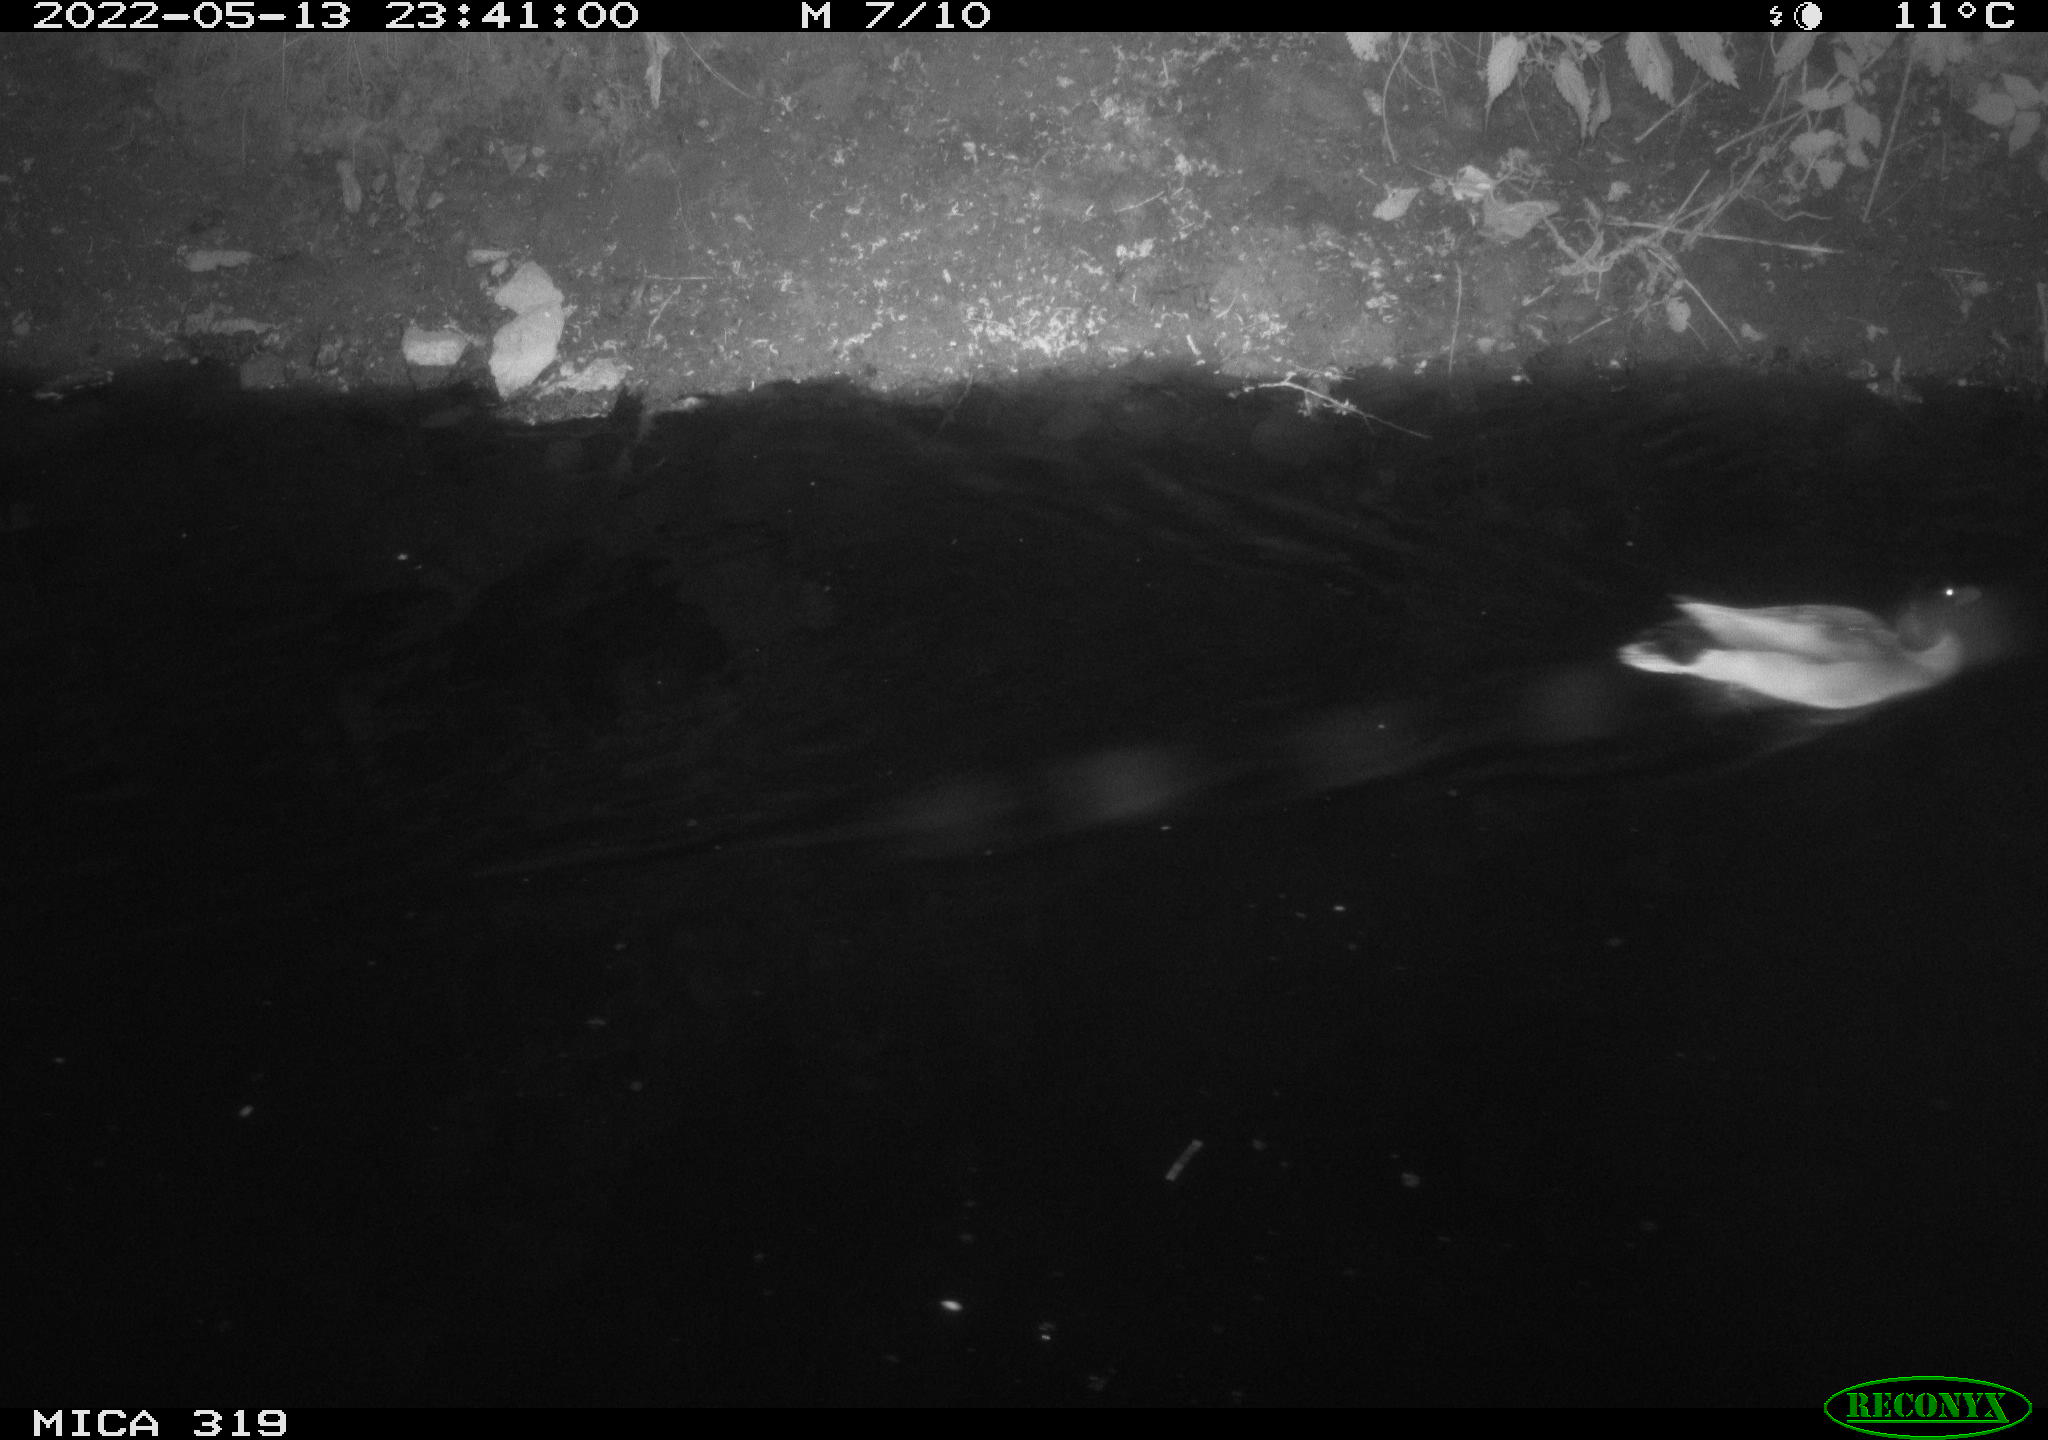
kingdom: Animalia
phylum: Chordata
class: Aves
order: Anseriformes
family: Anatidae
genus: Anas
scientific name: Anas
